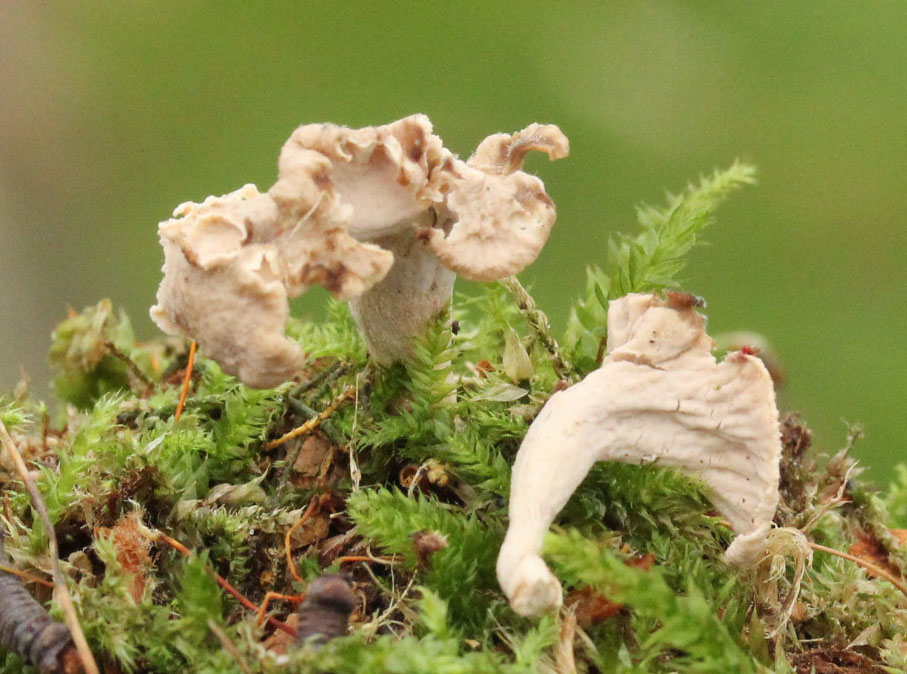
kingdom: Fungi
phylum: Basidiomycota
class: Agaricomycetes
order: Cantharellales
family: Hydnaceae
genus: Craterellus
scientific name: Craterellus undulatus
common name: liden kantarel
